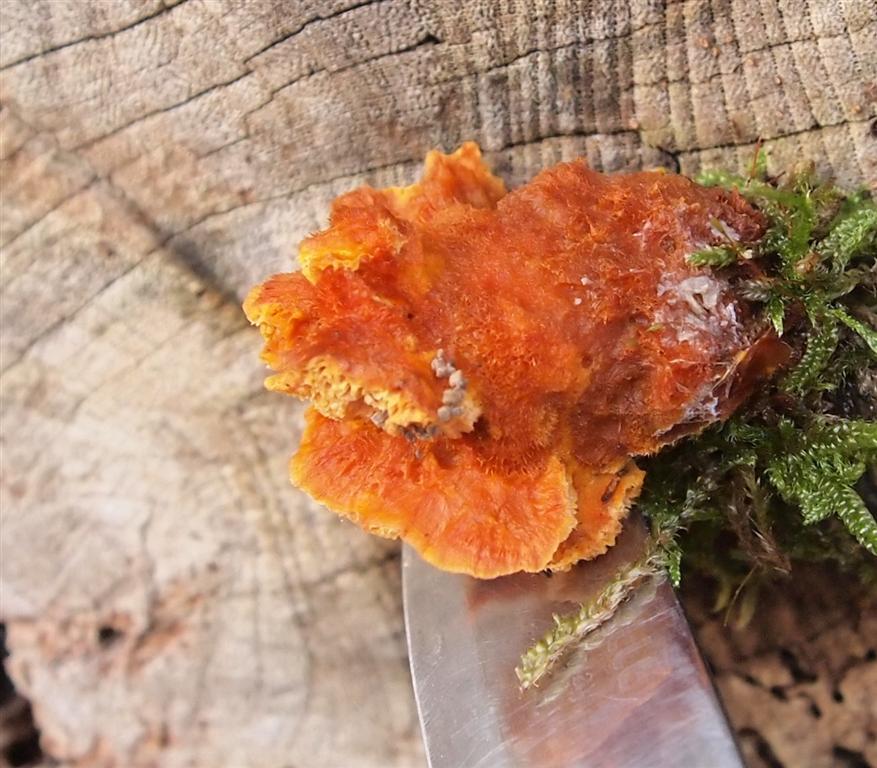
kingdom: Fungi
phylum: Basidiomycota
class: Agaricomycetes
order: Polyporales
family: Pycnoporellaceae
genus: Pycnoporellus
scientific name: Pycnoporellus fulgens
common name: flammeporesvamp
